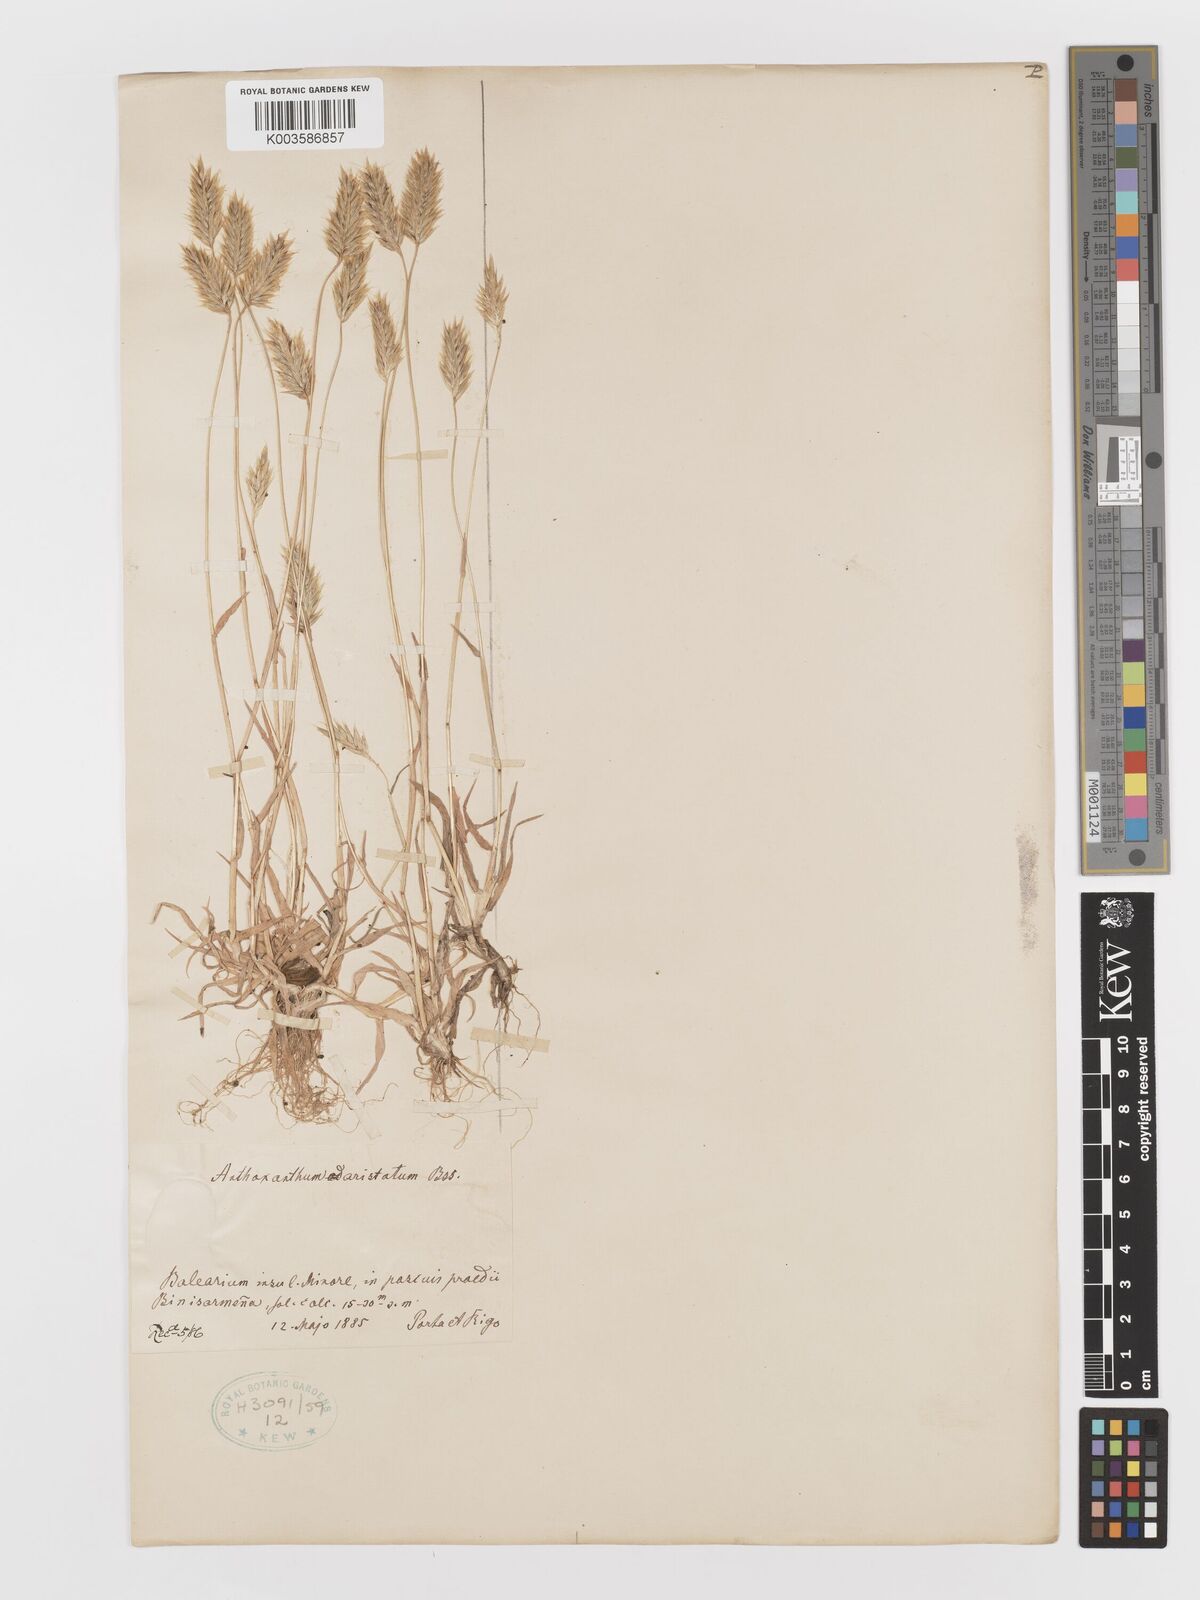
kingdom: Plantae
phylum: Tracheophyta
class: Liliopsida
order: Poales
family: Poaceae
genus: Anthoxanthum
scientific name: Anthoxanthum
